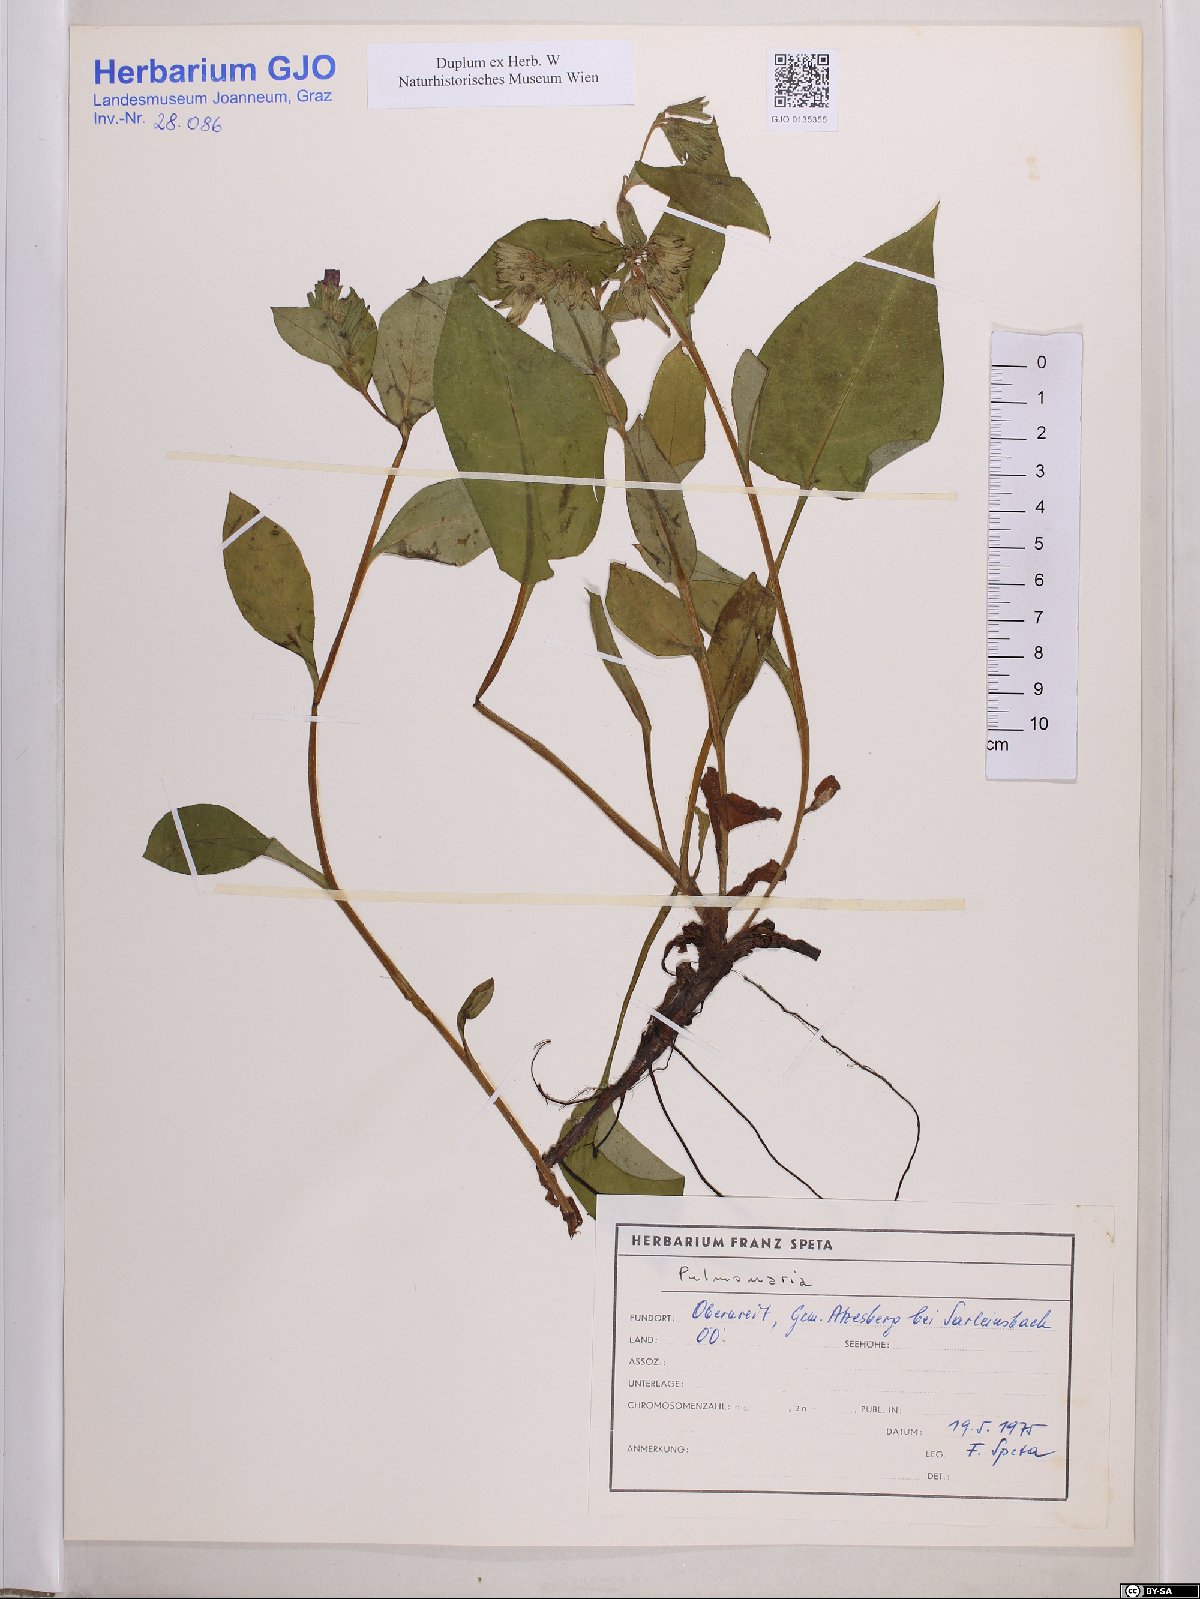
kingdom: Plantae
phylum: Tracheophyta
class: Magnoliopsida
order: Boraginales
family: Boraginaceae
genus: Pulmonaria
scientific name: Pulmonaria
